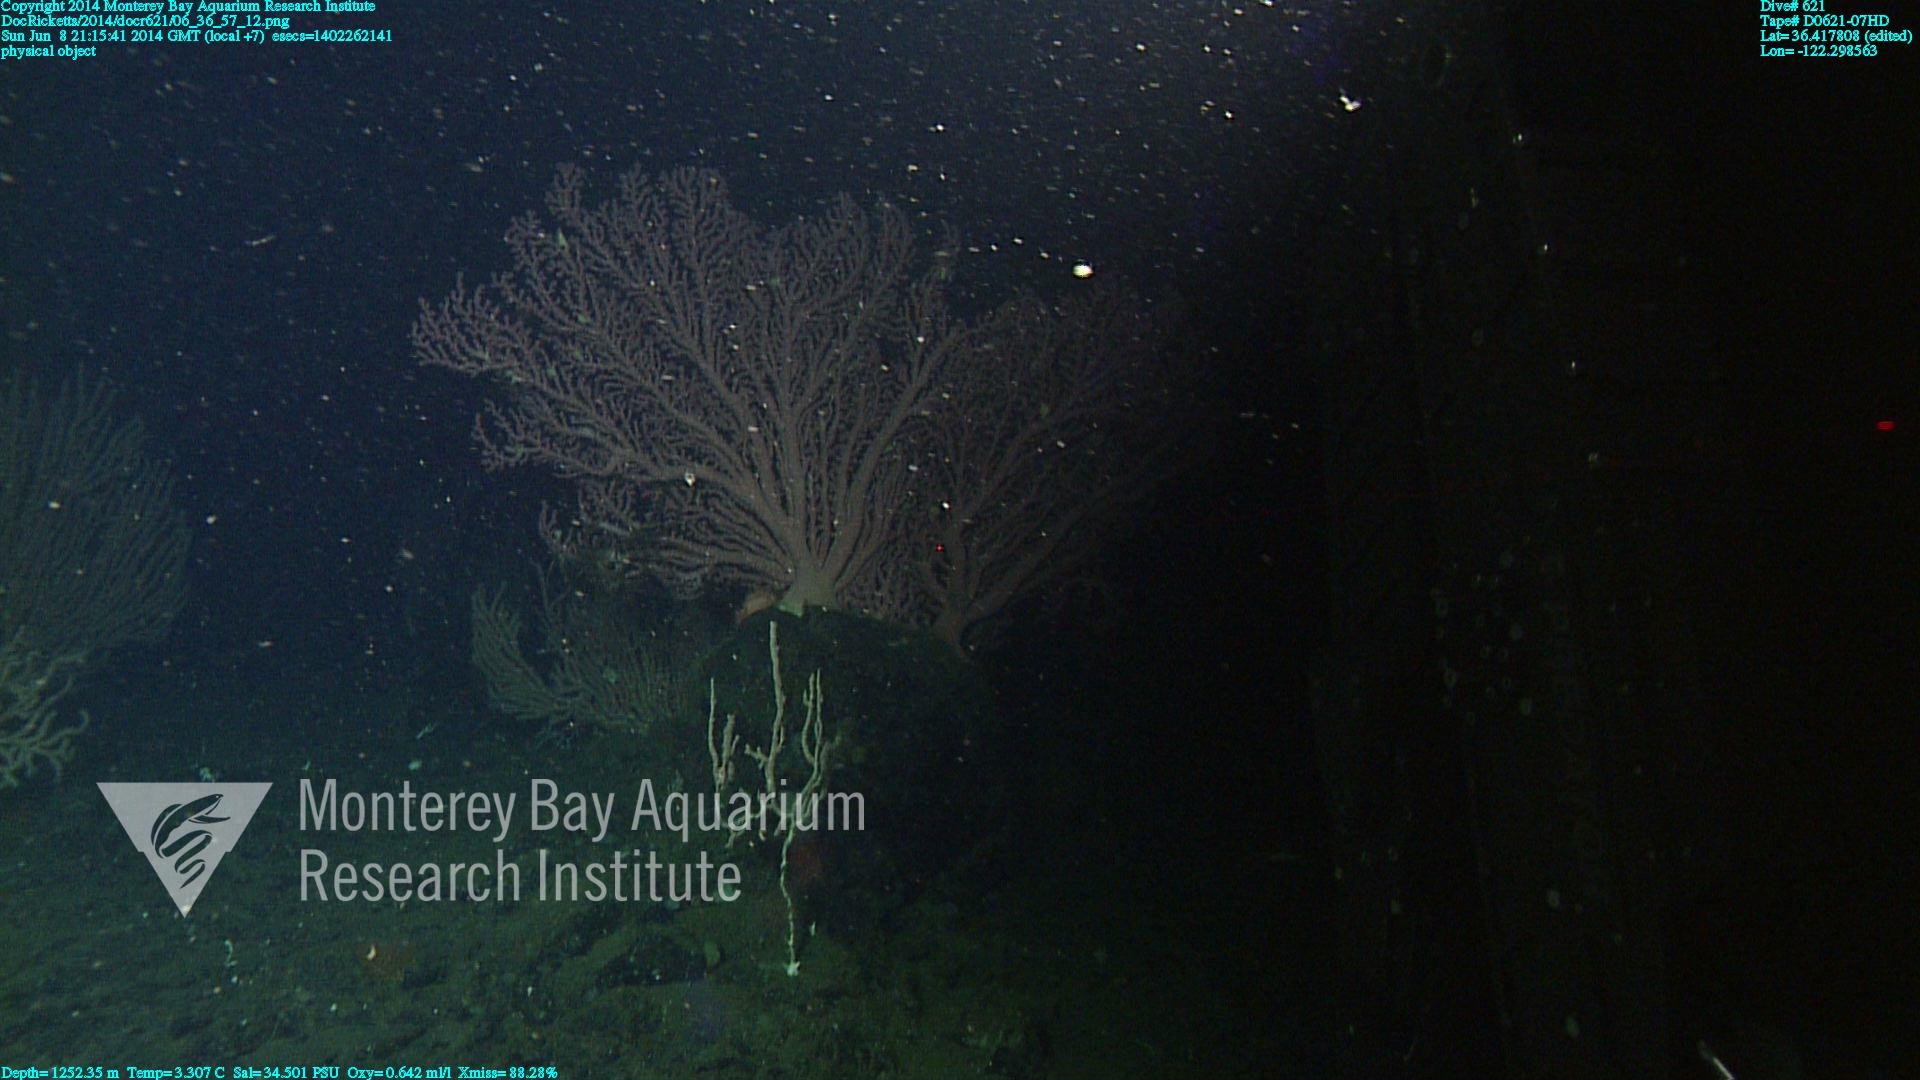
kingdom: Animalia
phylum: Cnidaria
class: Anthozoa
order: Scleralcyonacea
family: Coralliidae
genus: Paragorgia
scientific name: Paragorgia arborea
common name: Bubble gum coral
